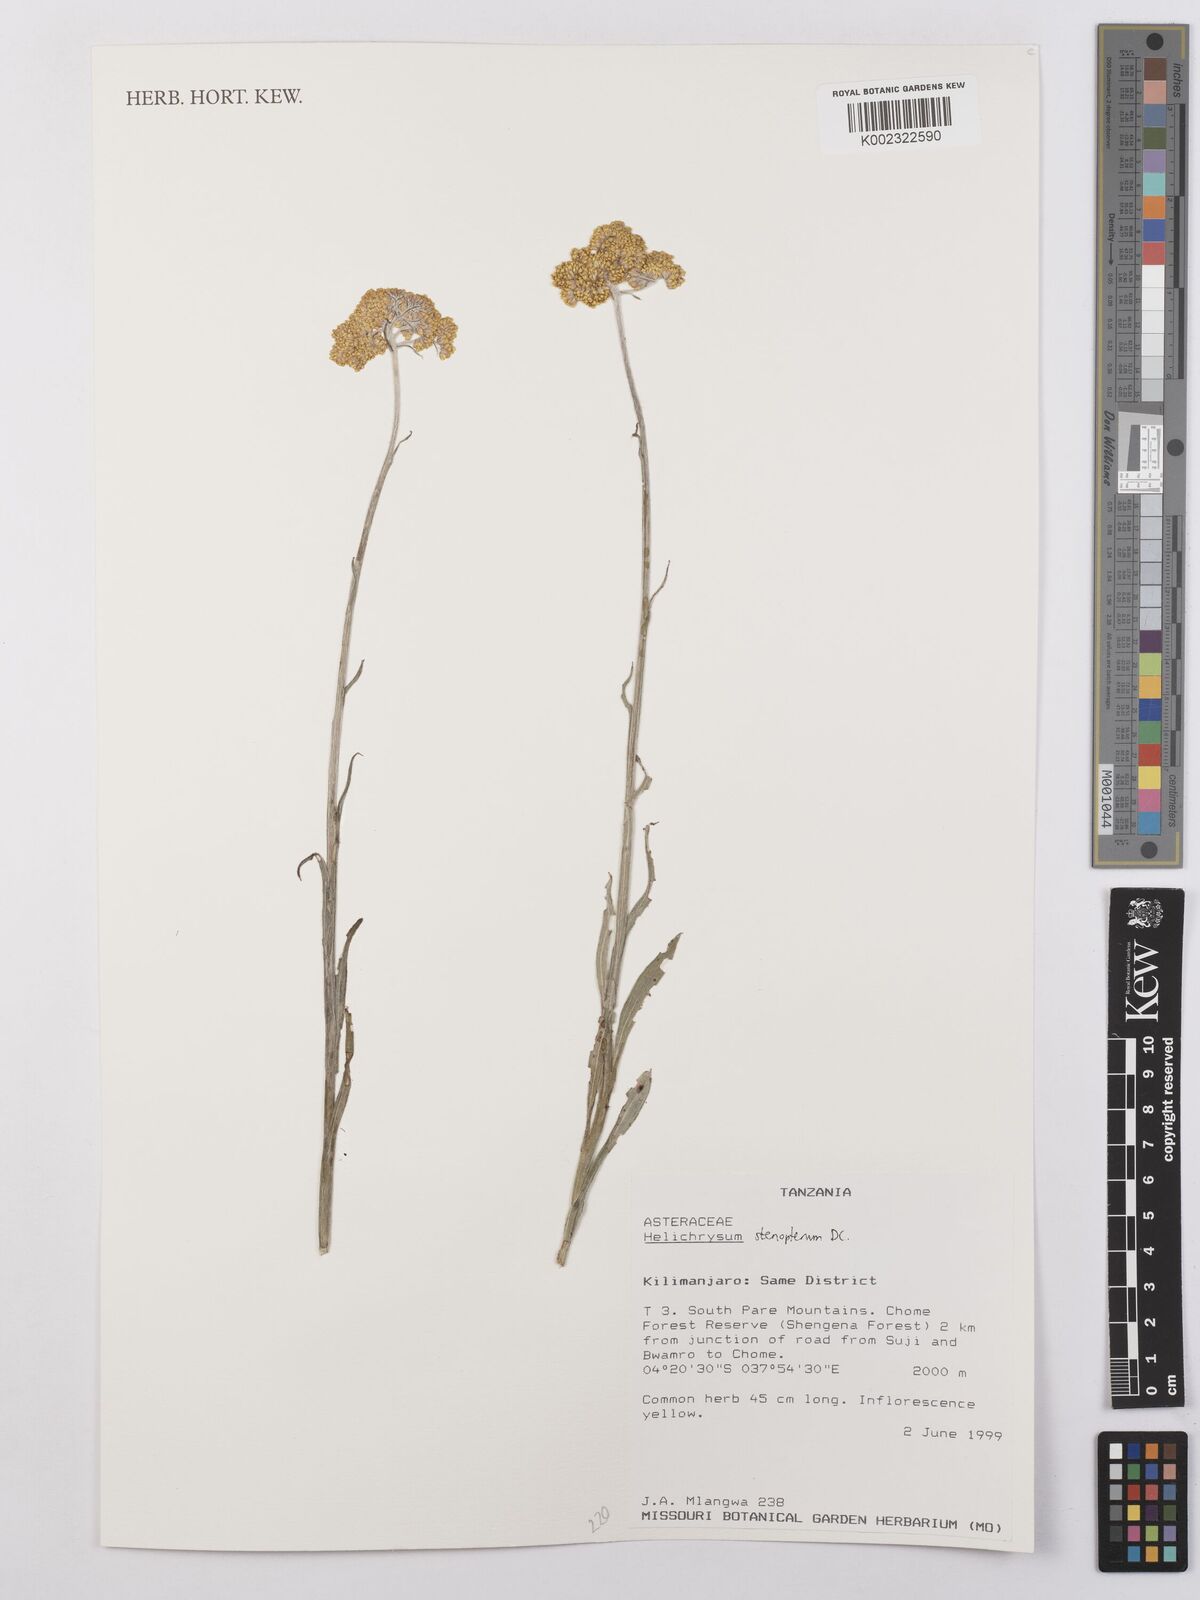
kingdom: Plantae
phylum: Tracheophyta
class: Magnoliopsida
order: Asterales
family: Asteraceae
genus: Helichrysum
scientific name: Helichrysum stenopterum
